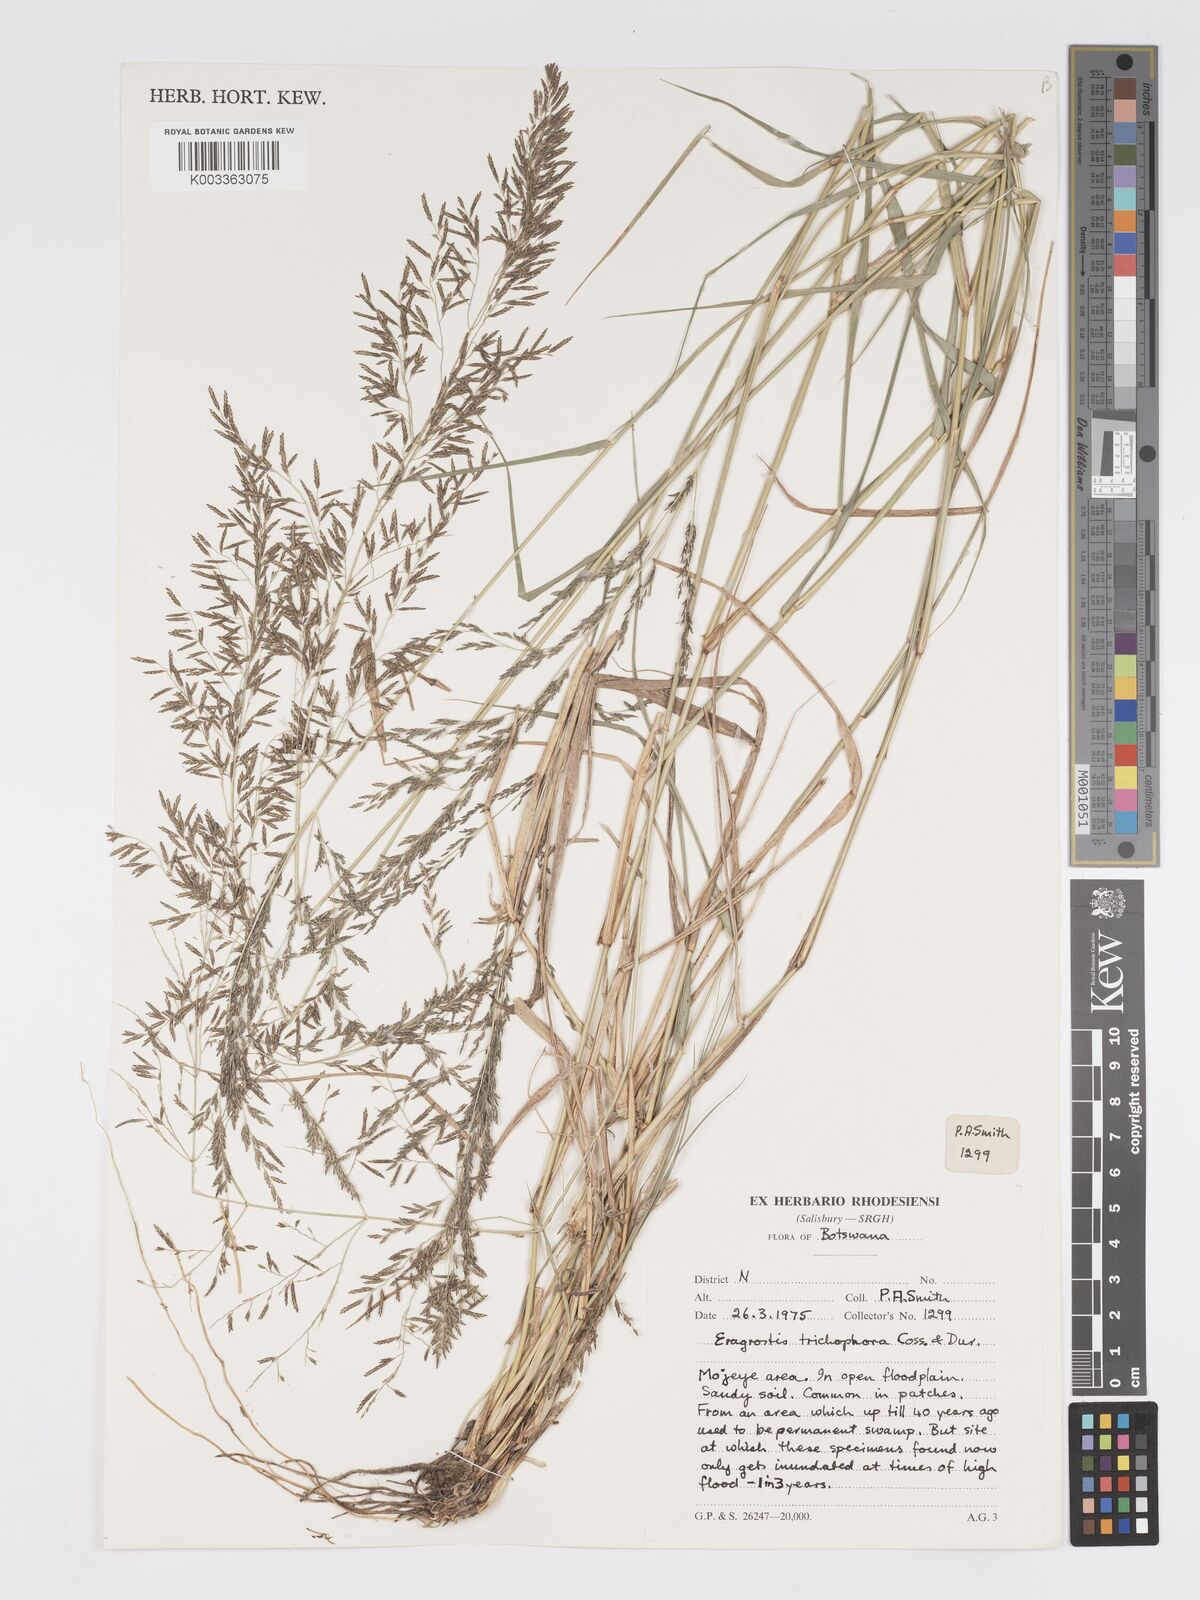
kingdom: Plantae
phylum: Tracheophyta
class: Liliopsida
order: Poales
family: Poaceae
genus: Eragrostis
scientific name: Eragrostis cylindriflora
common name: Cylinderflower lovegrass
